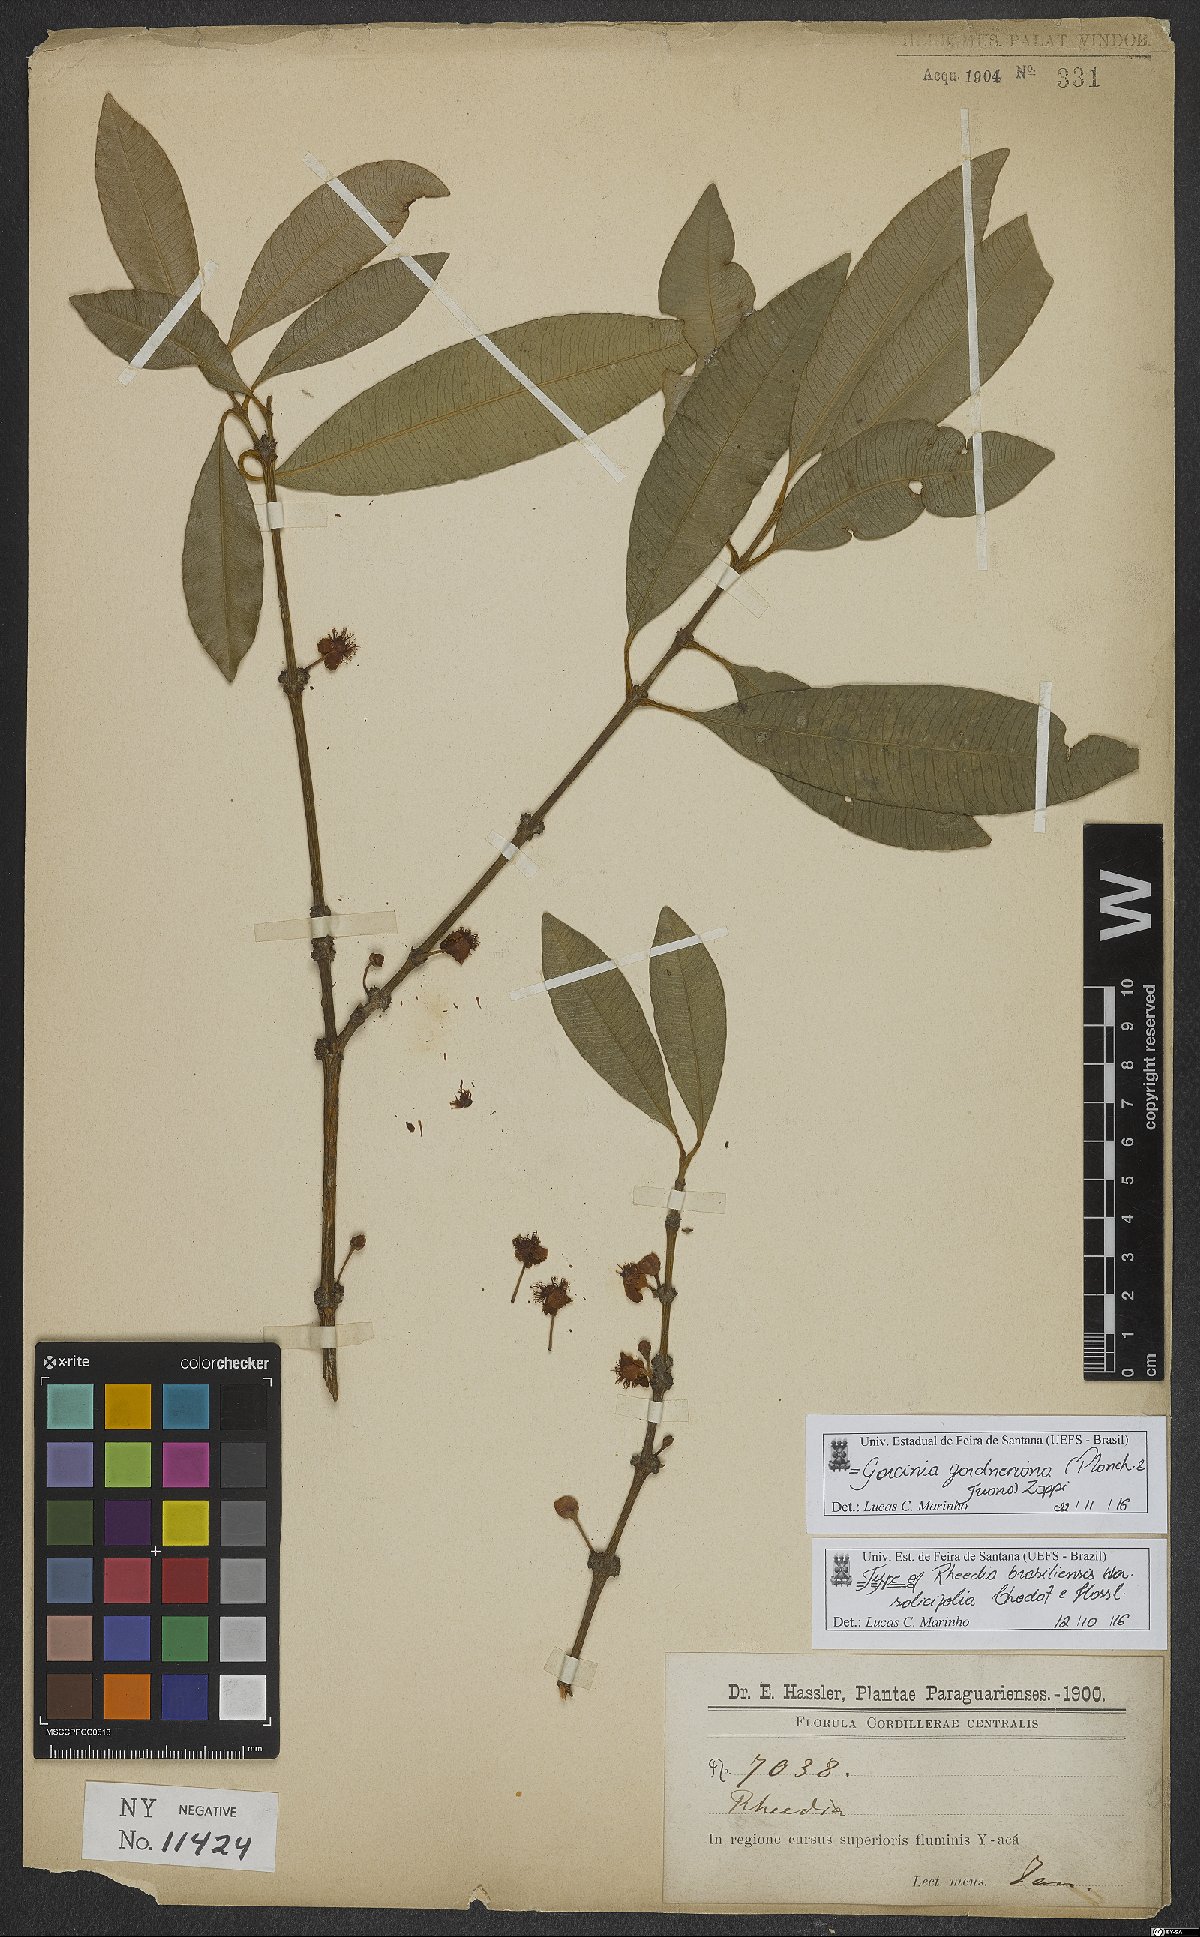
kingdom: Plantae
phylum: Tracheophyta
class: Magnoliopsida
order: Malpighiales
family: Clusiaceae
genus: Garcinia
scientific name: Garcinia gardneriana
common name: Achacha
